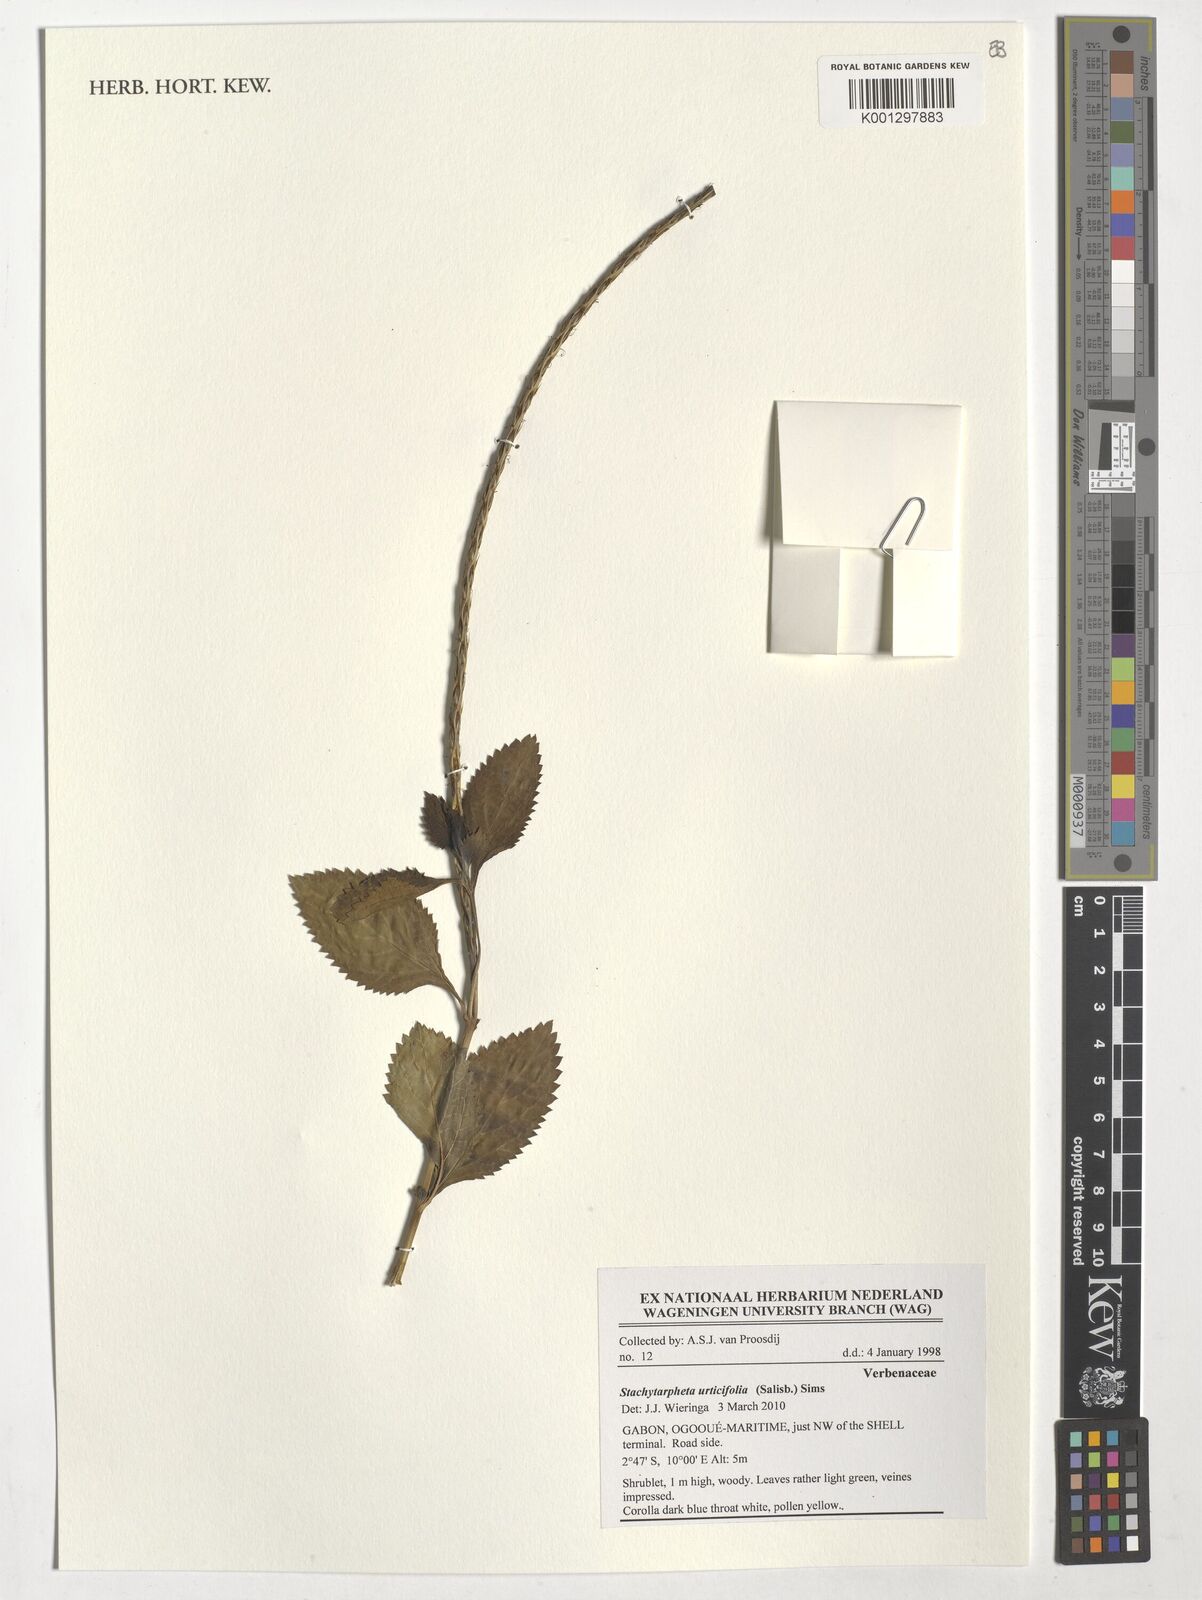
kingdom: Plantae
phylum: Tracheophyta
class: Magnoliopsida
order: Lamiales
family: Verbenaceae
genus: Stachytarpheta
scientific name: Stachytarpheta urticifolia
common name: Nettleleaf velvetberry
